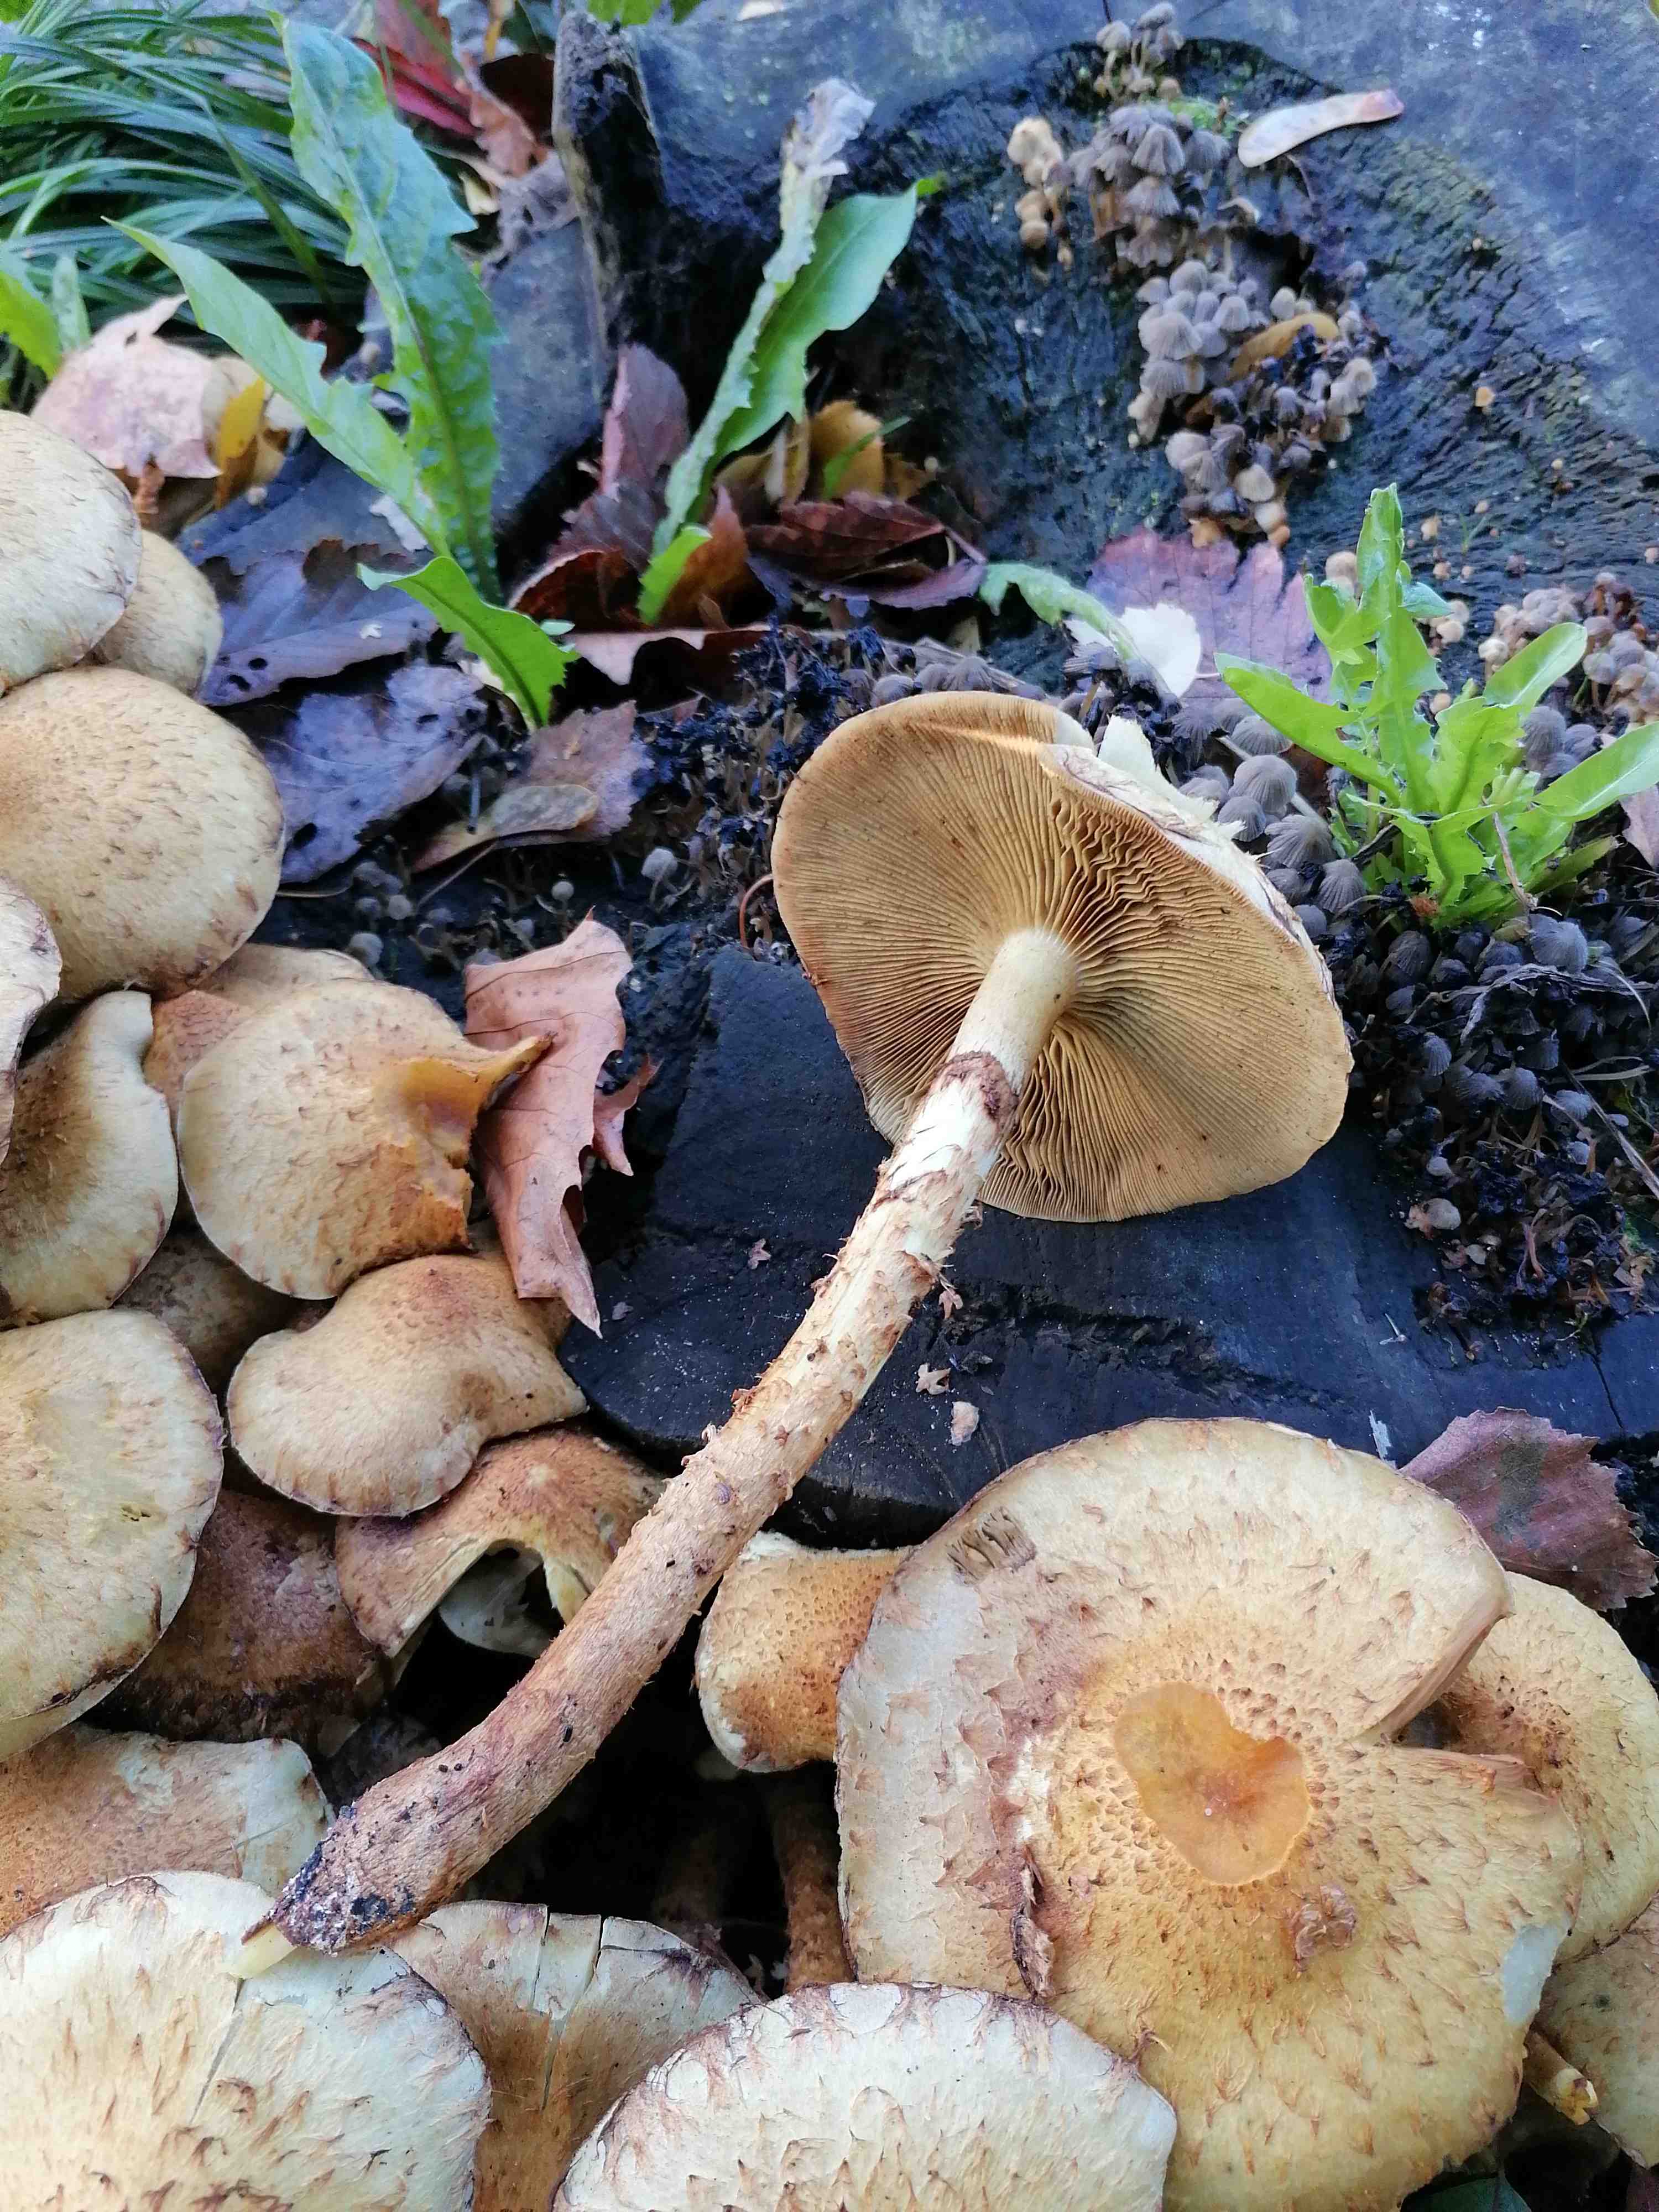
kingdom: Fungi
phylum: Basidiomycota
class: Agaricomycetes
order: Agaricales
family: Strophariaceae
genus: Pholiota
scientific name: Pholiota gummosa
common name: grøngul skælhat
